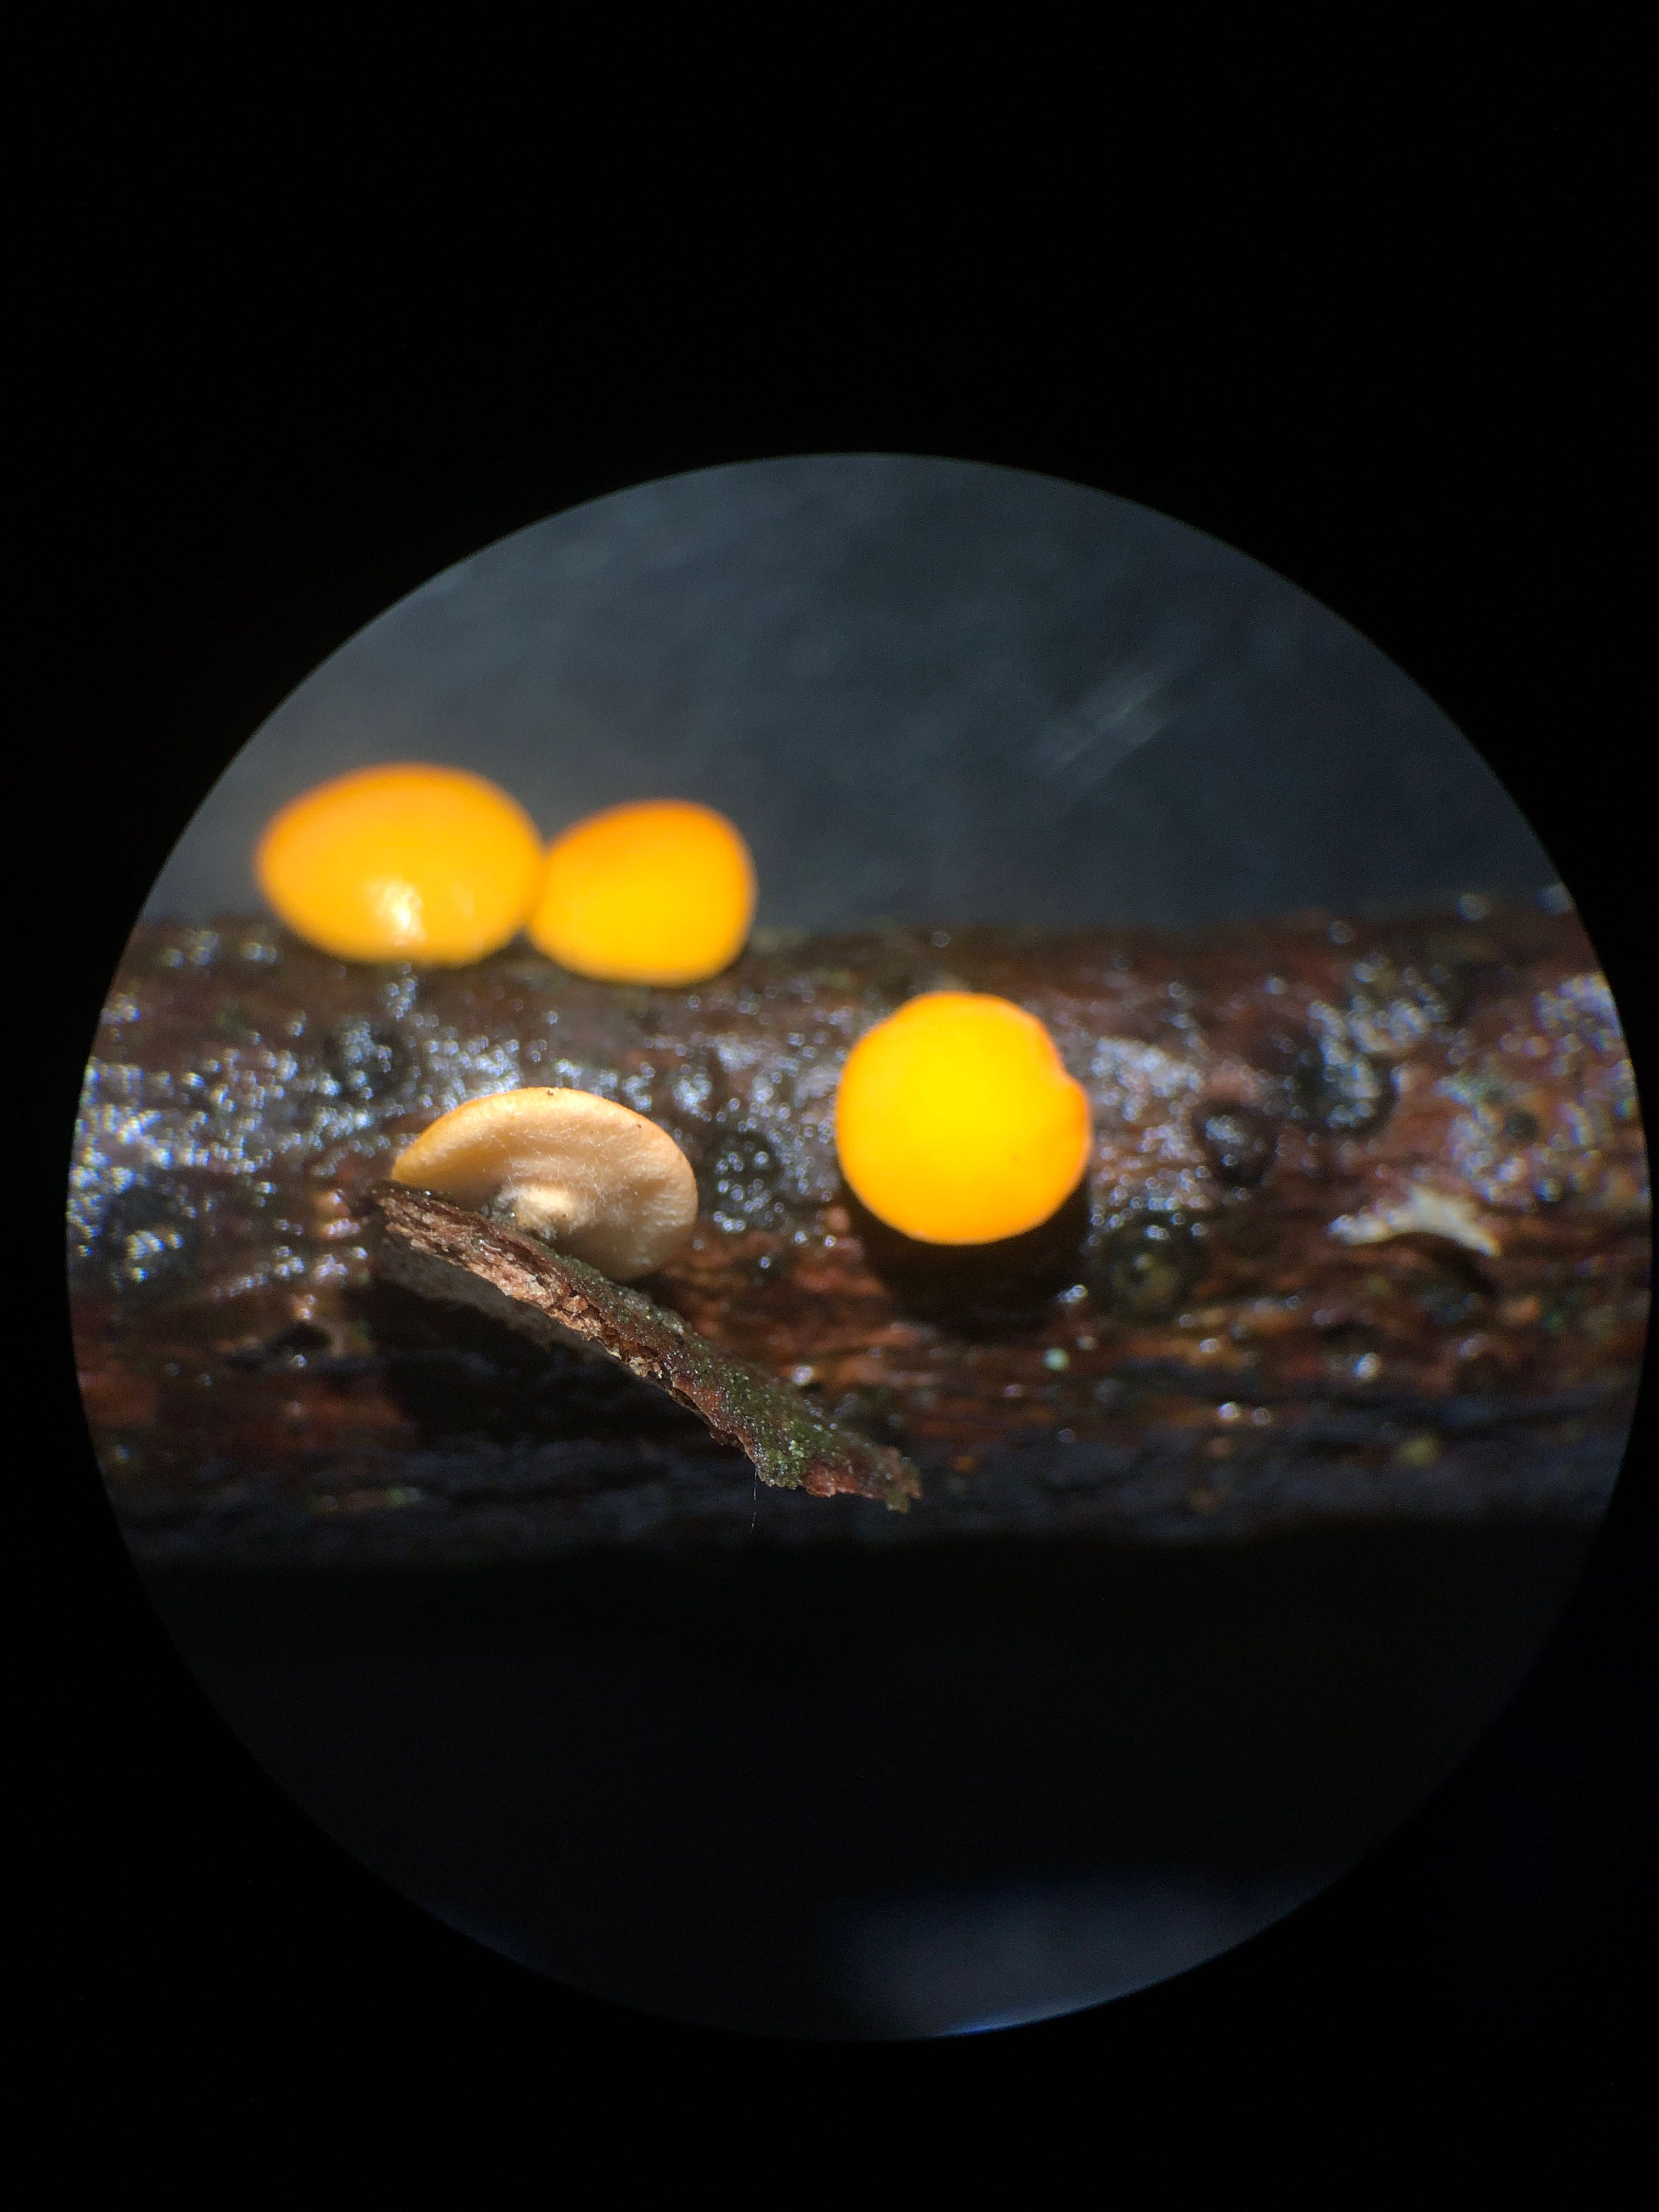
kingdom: Fungi
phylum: Ascomycota
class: Pezizomycetes
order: Pezizales
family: Sarcoscyphaceae
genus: Pithya
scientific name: Pithya vulgaris
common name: stor dukatbæger
